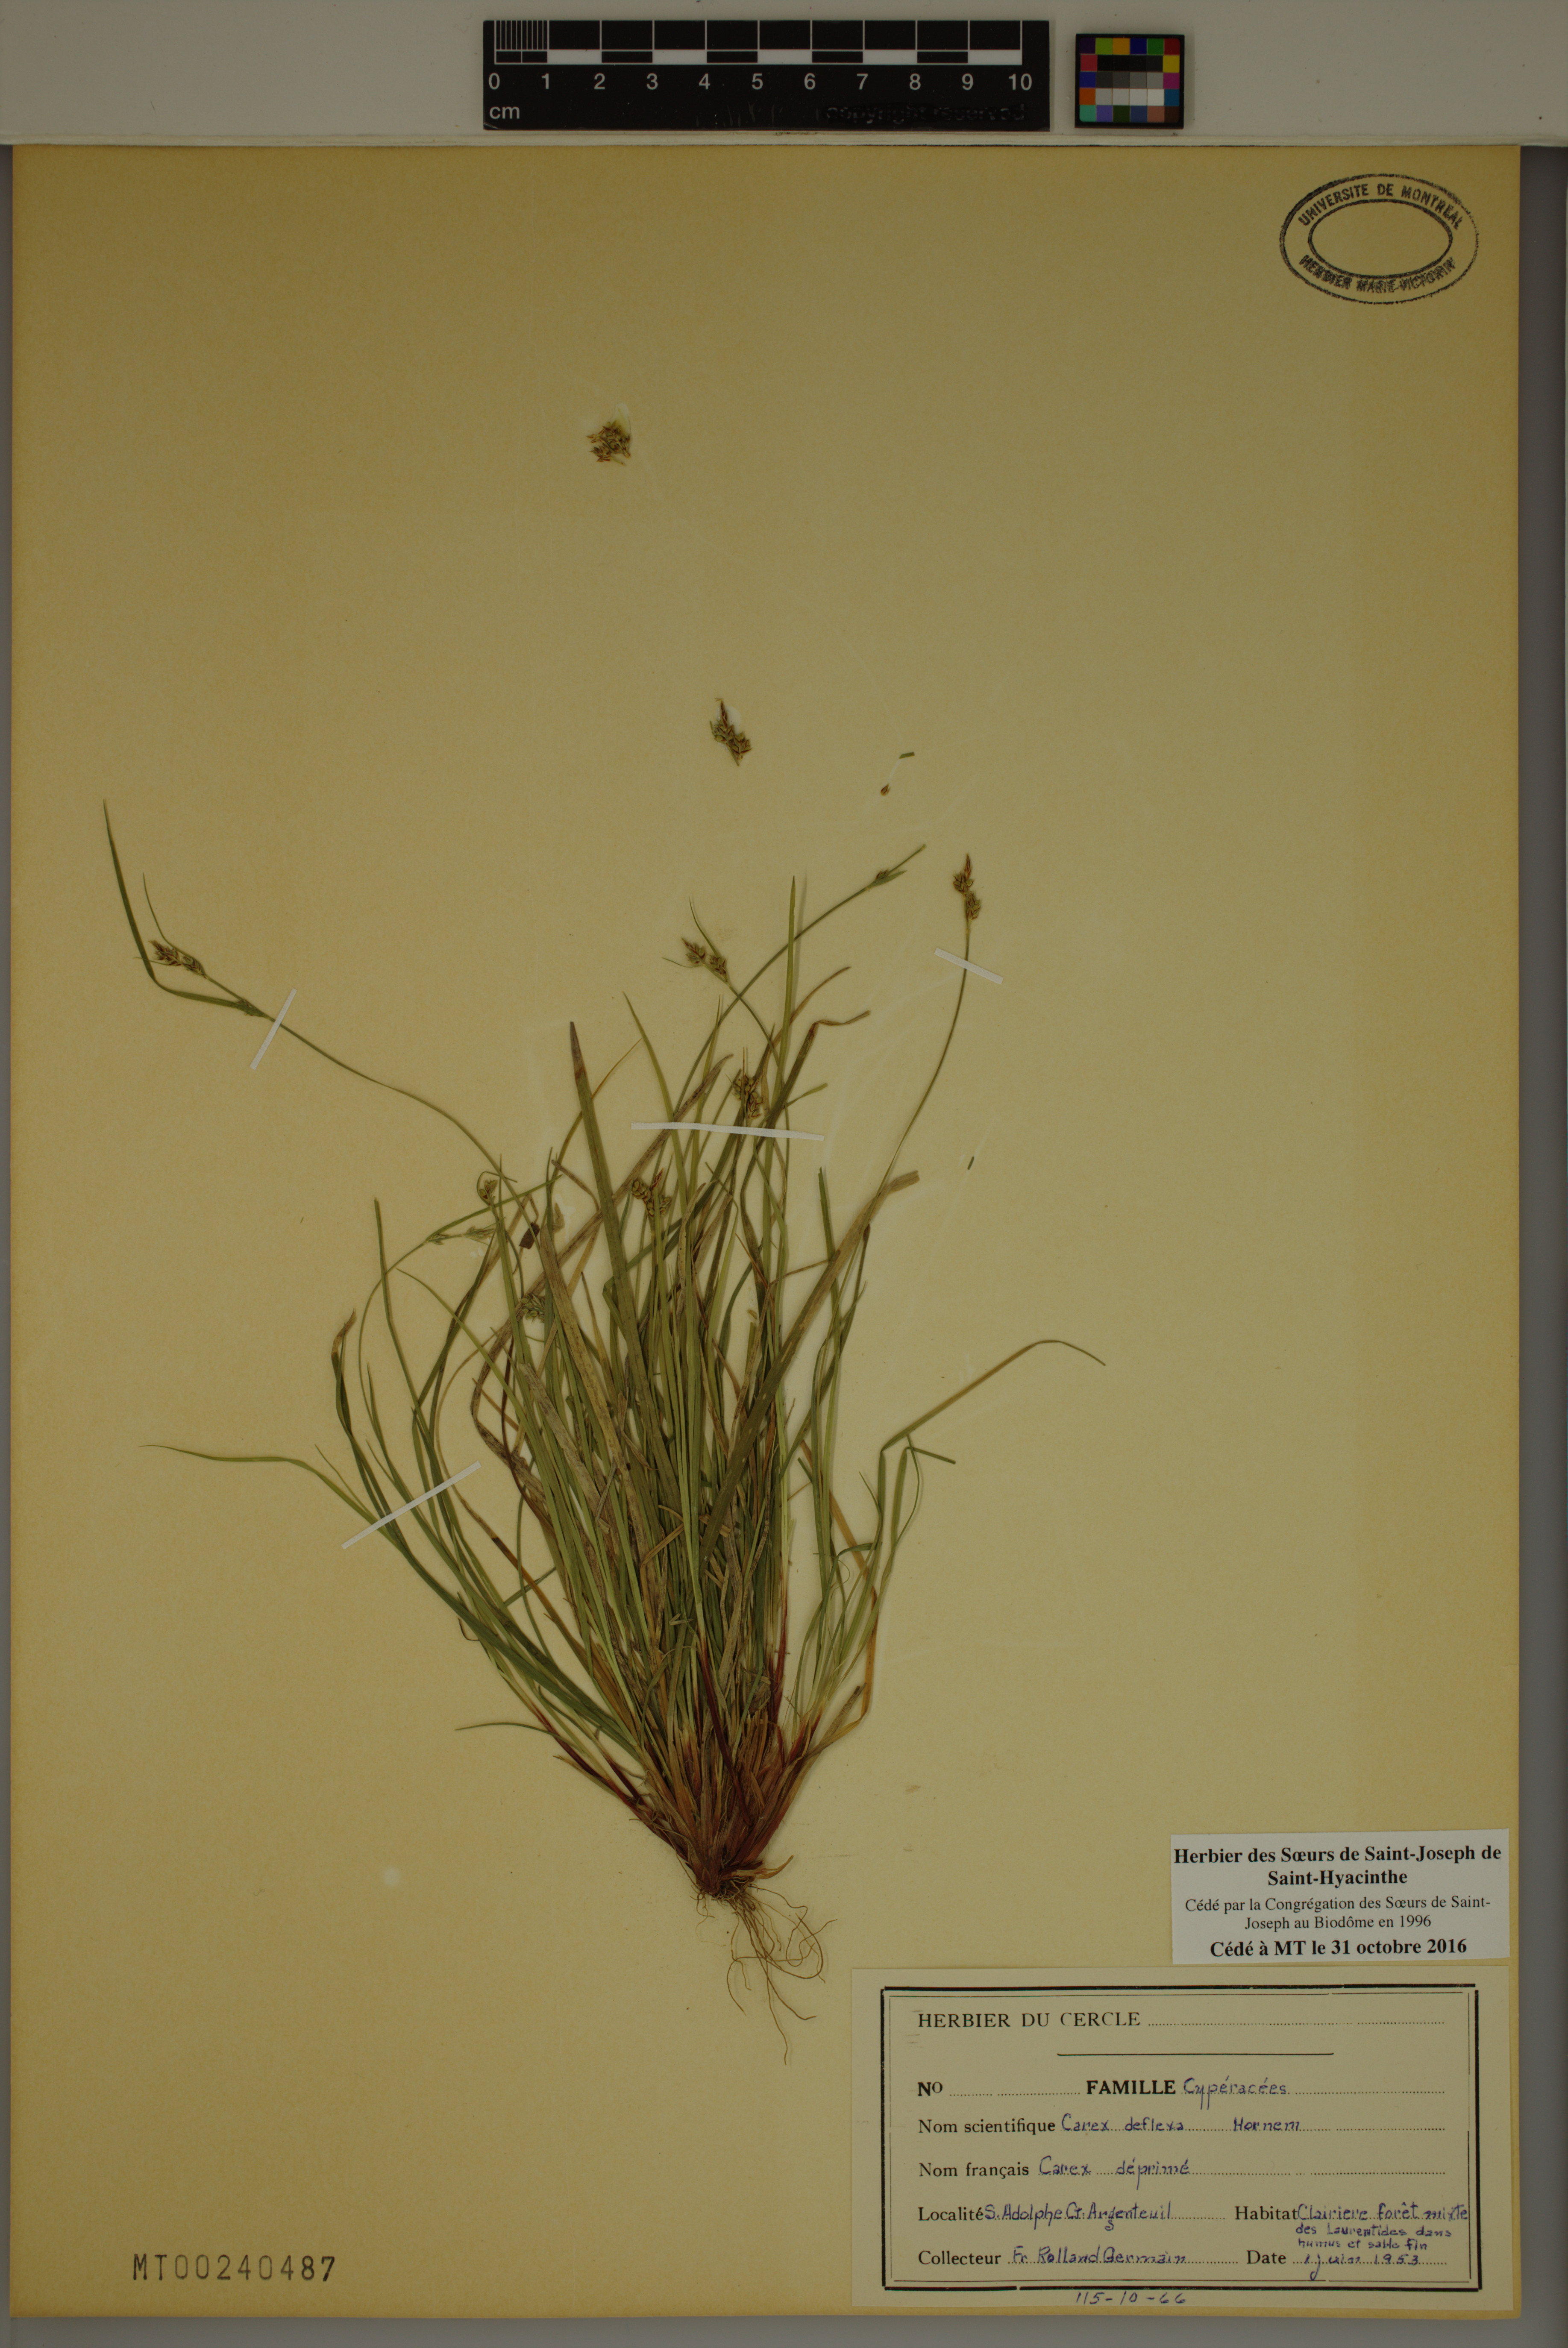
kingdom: Plantae
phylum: Tracheophyta
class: Liliopsida
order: Poales
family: Cyperaceae
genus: Carex
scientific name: Carex deflexa
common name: Bent northern sedge
